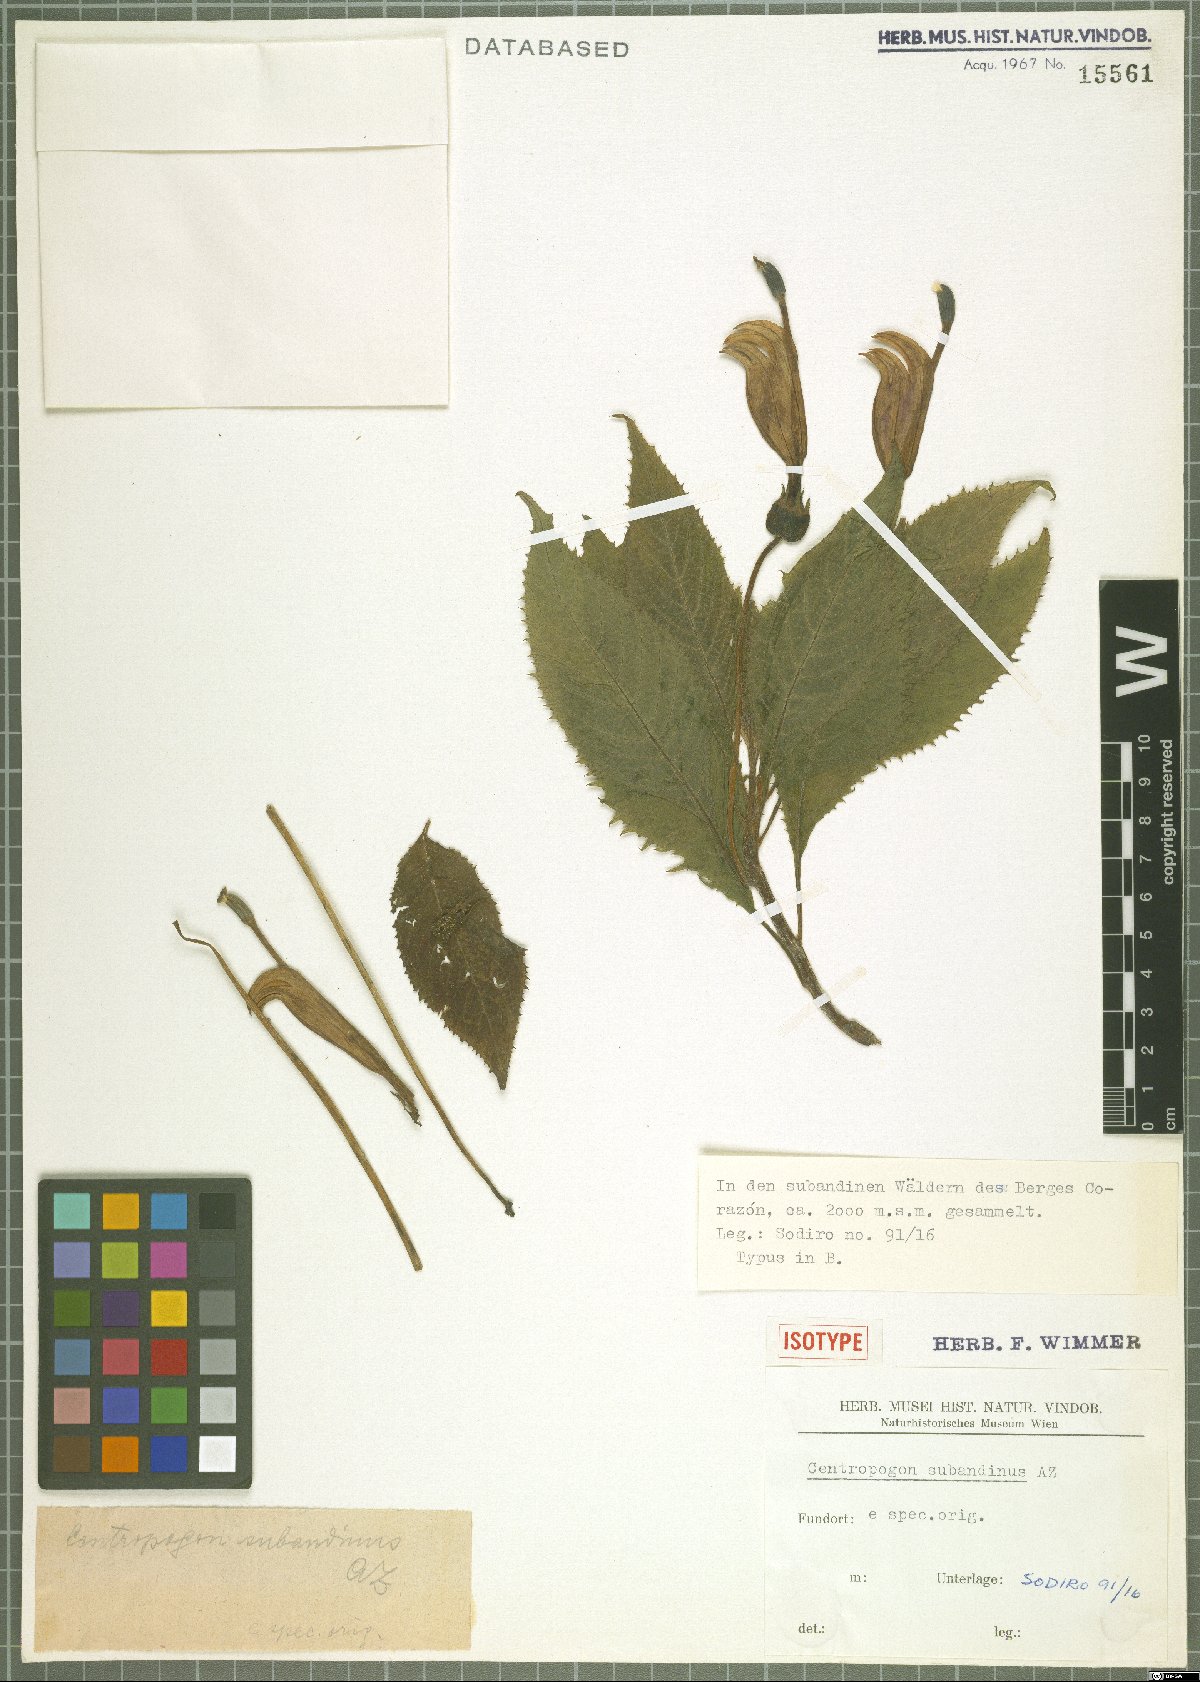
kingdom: Plantae
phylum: Tracheophyta
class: Magnoliopsida
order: Asterales
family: Campanulaceae
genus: Centropogon
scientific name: Centropogon subandinus
